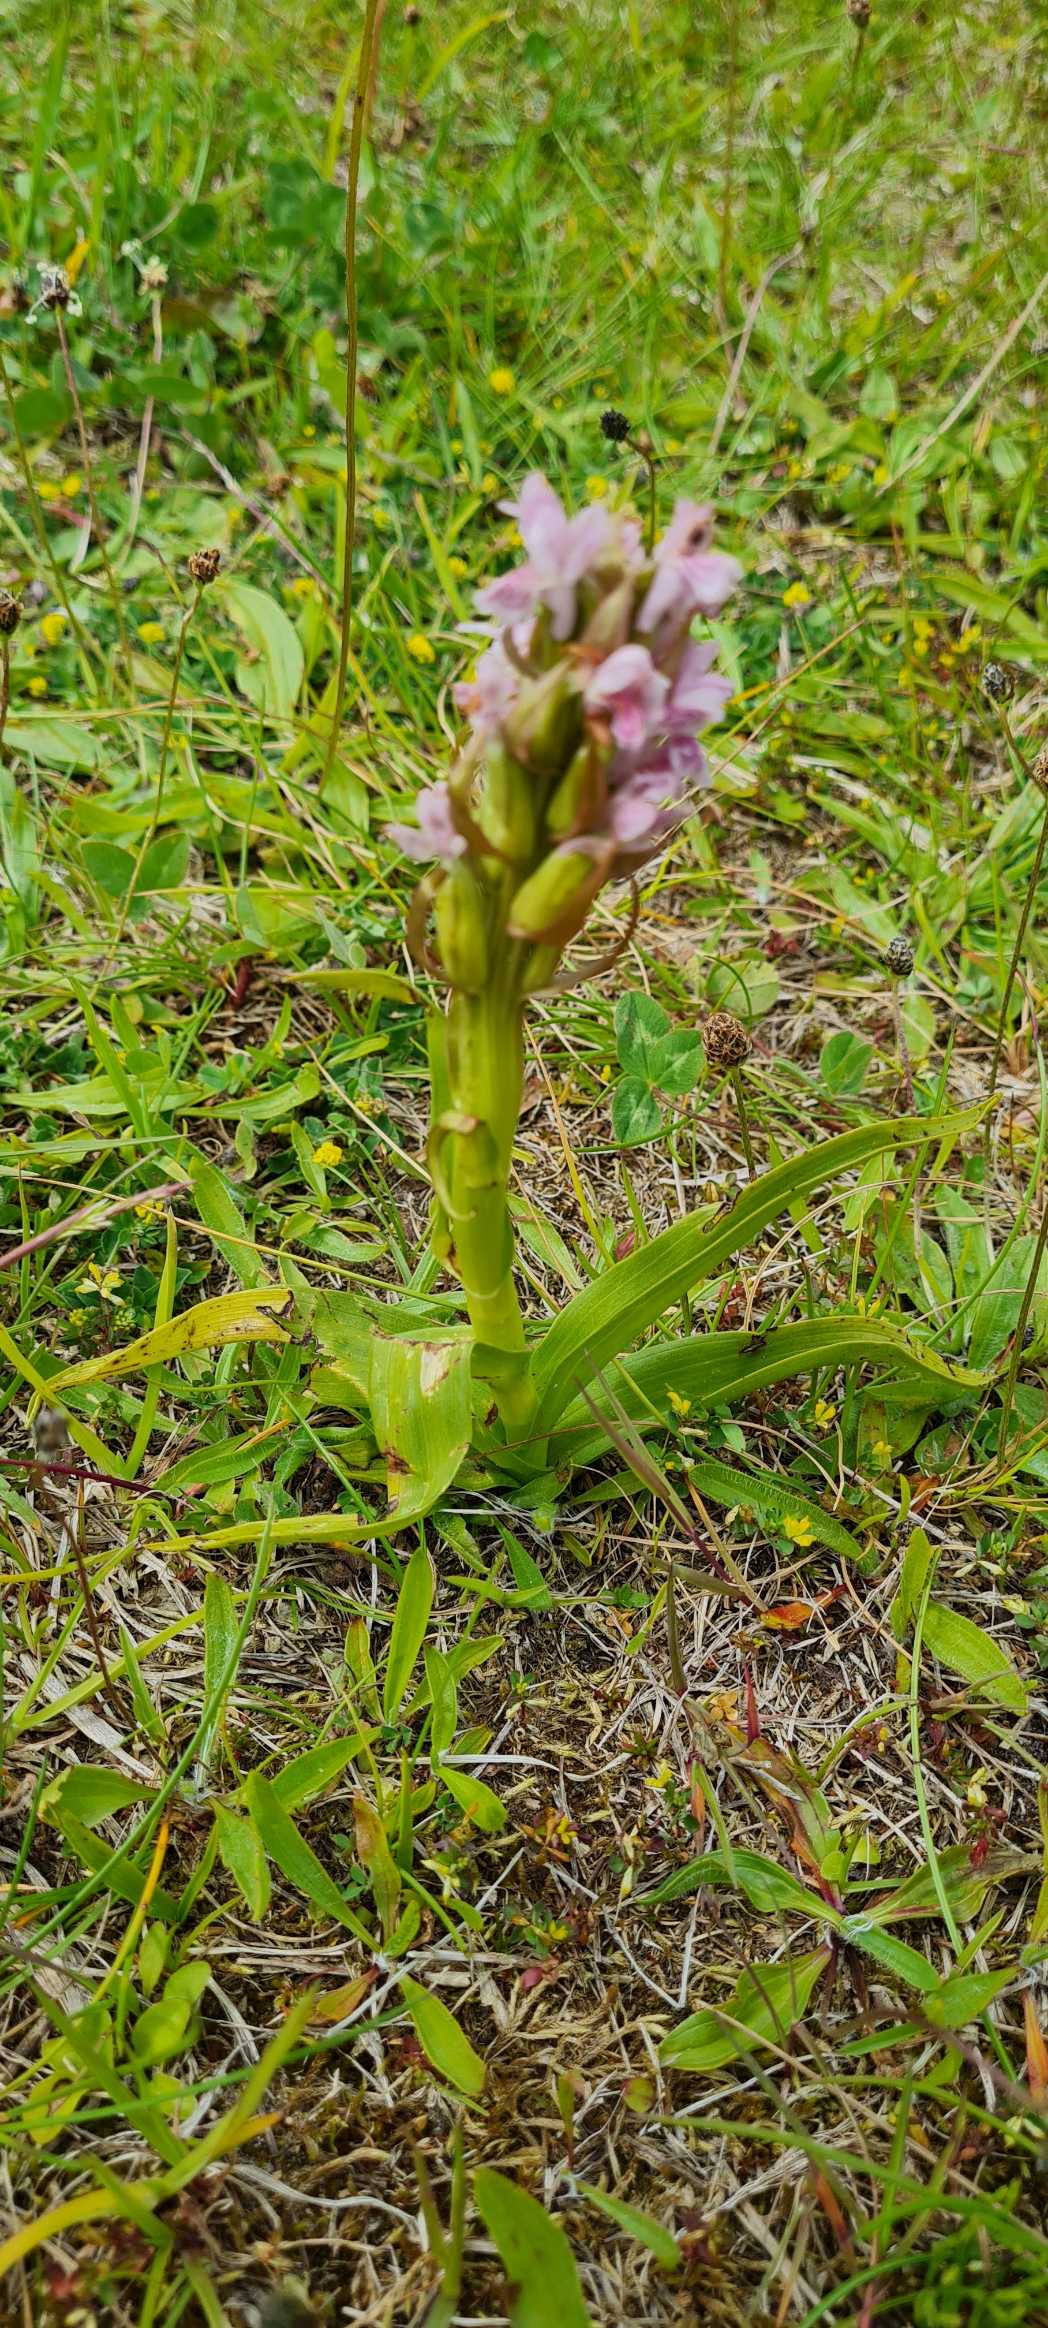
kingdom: Plantae
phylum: Tracheophyta
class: Liliopsida
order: Asparagales
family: Orchidaceae
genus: Dactylorhiza
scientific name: Dactylorhiza incarnata
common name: Kødfarvet gøgeurt
